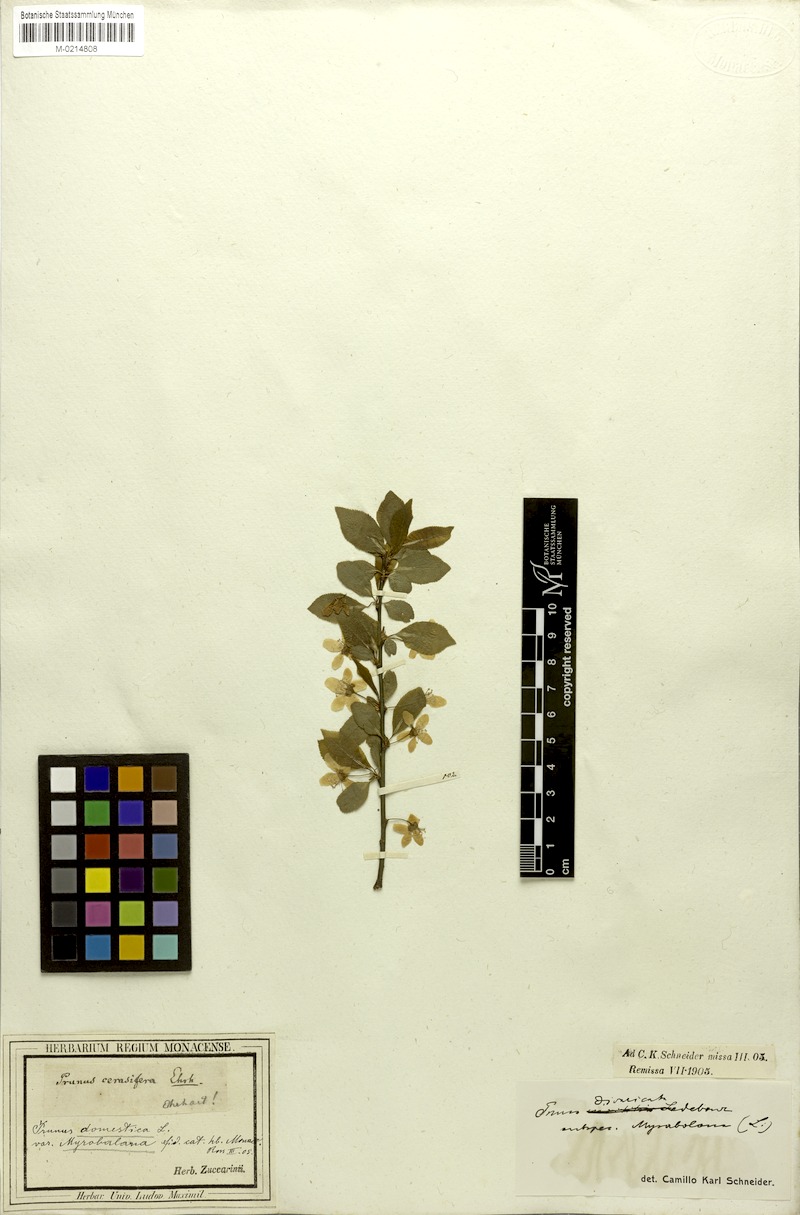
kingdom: Plantae
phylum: Tracheophyta
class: Magnoliopsida
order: Rosales
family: Rosaceae
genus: Prunus
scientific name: Prunus cerasifera
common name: Cherry plum
